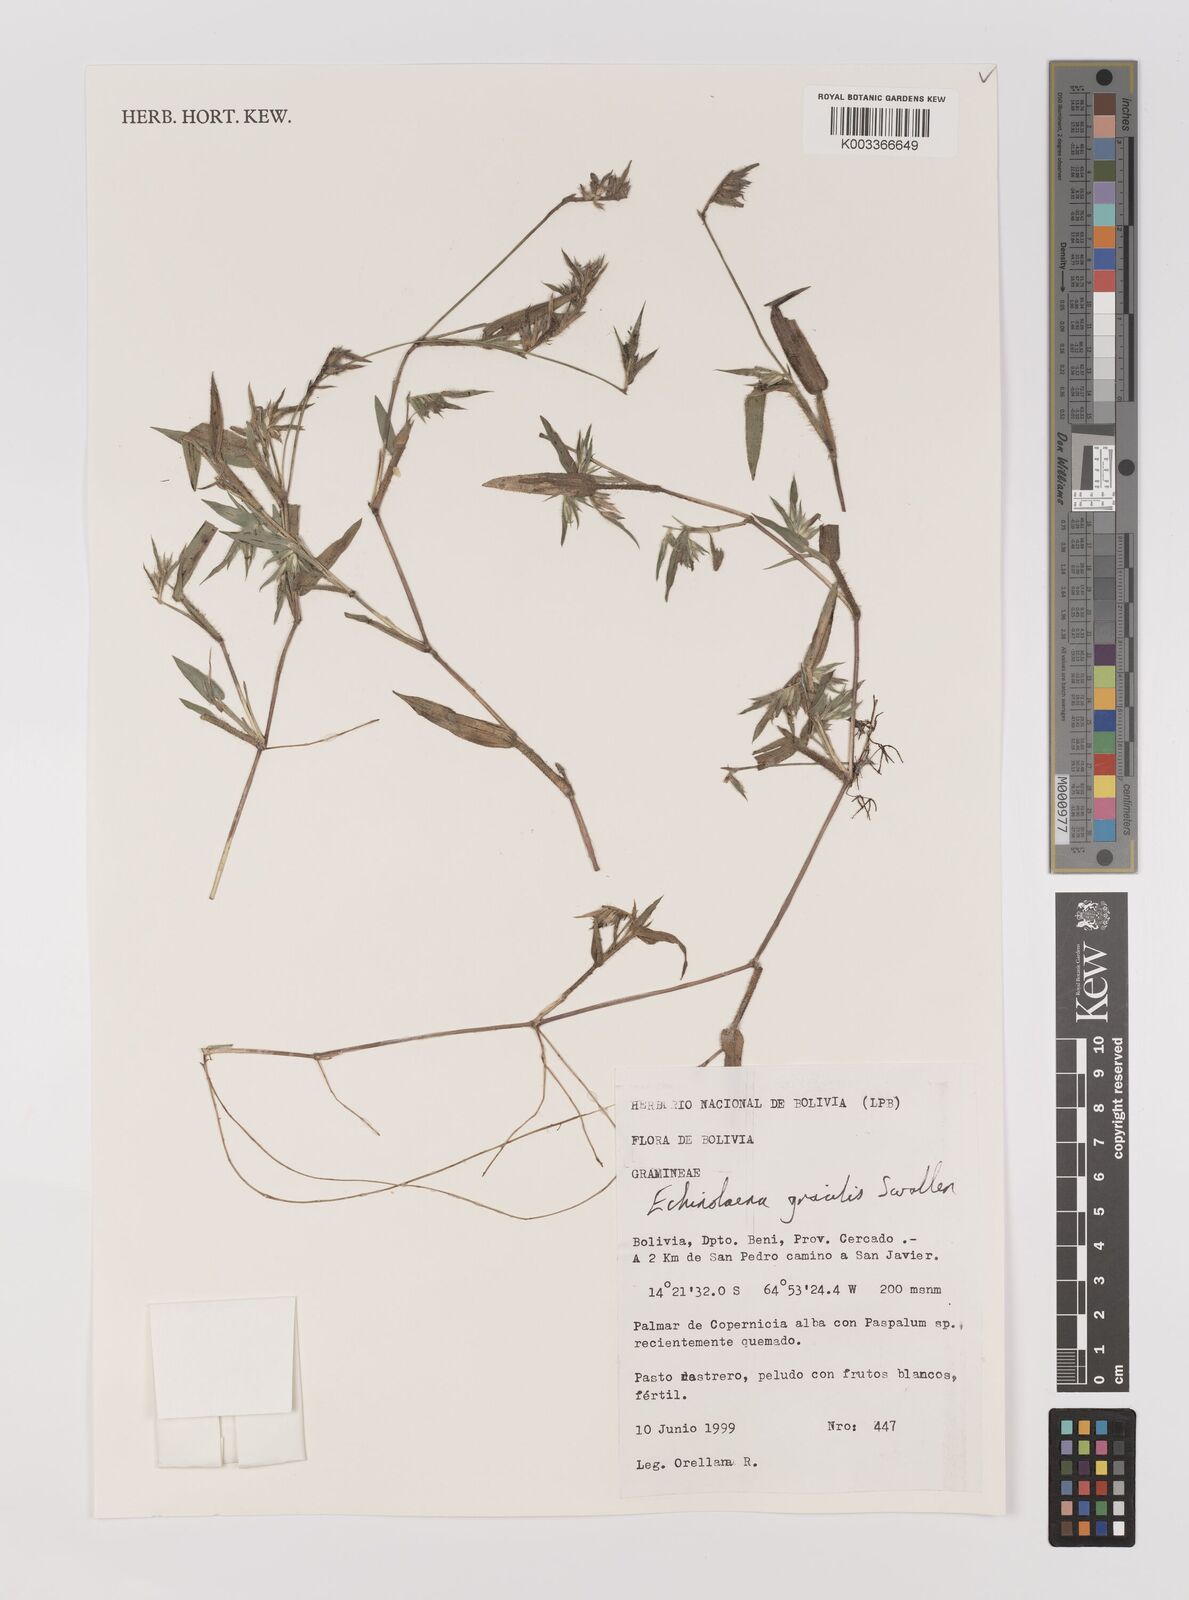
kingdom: Plantae
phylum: Tracheophyta
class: Liliopsida
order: Poales
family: Poaceae
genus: Echinolaena
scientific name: Echinolaena gracilis
